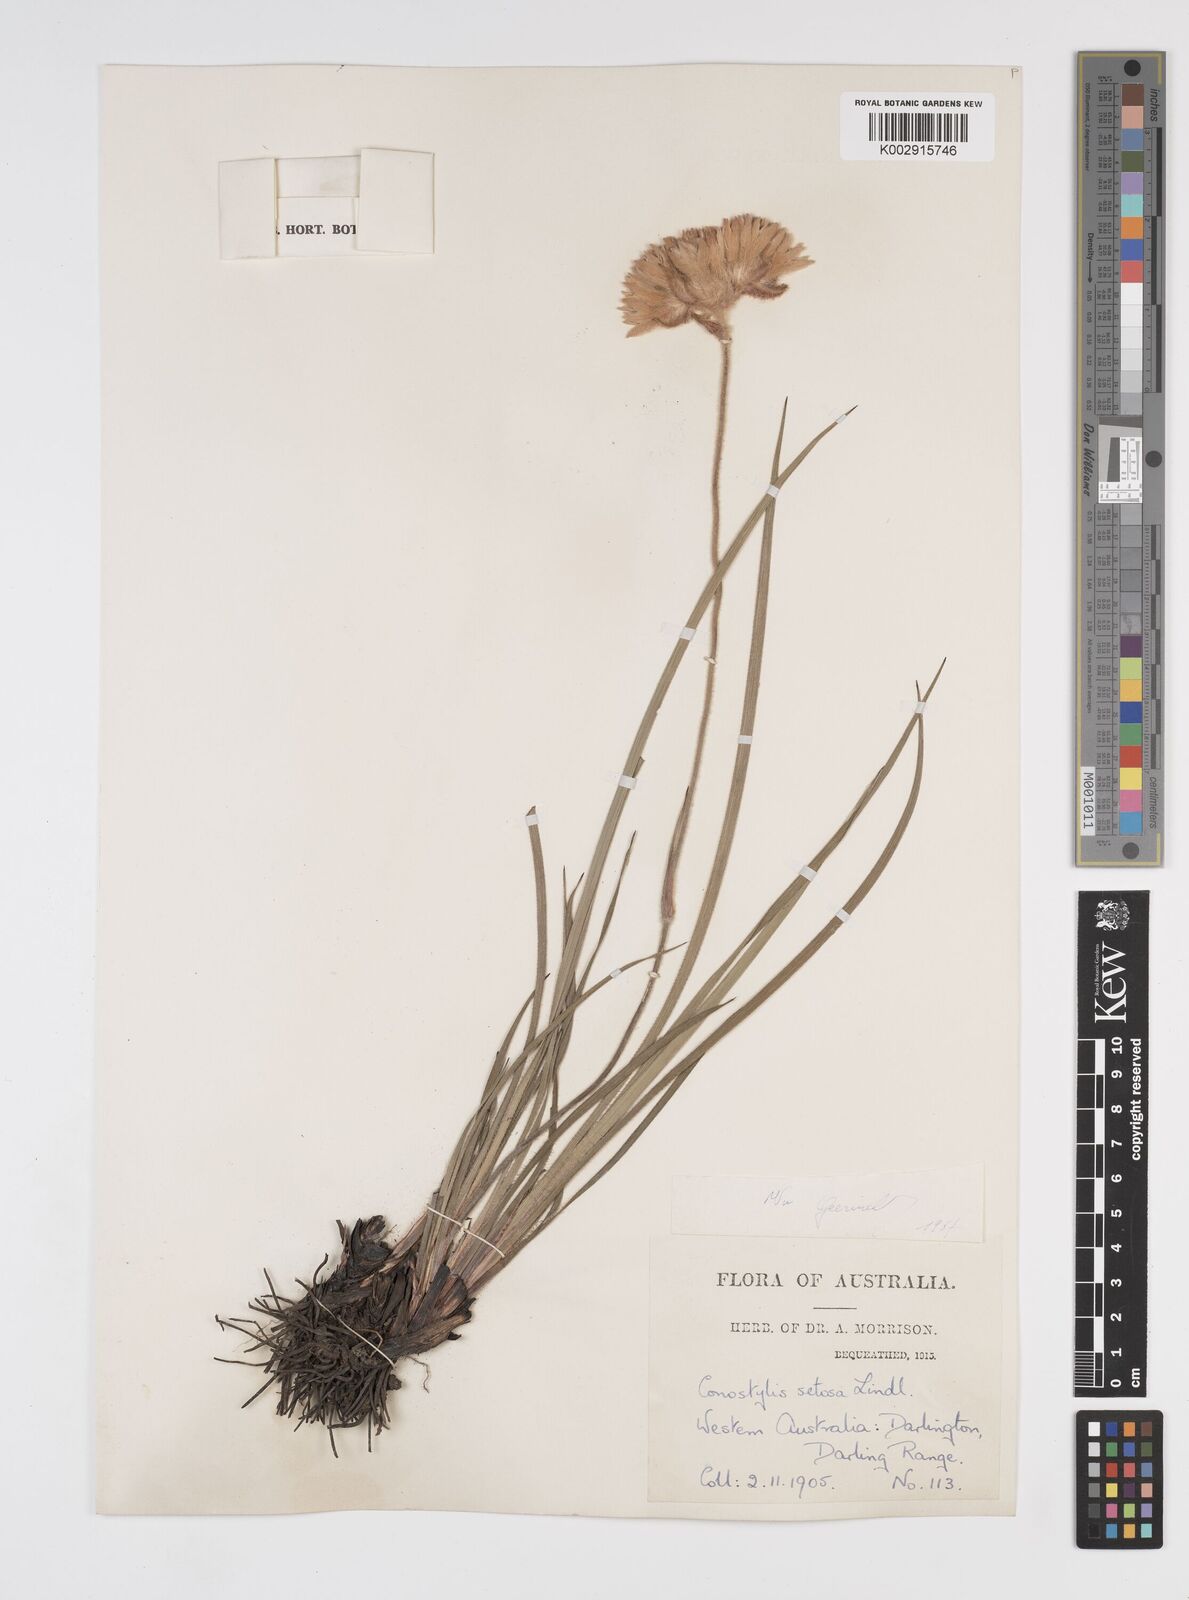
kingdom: Plantae
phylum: Tracheophyta
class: Liliopsida
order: Commelinales
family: Haemodoraceae
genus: Conostylis
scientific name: Conostylis setosa
